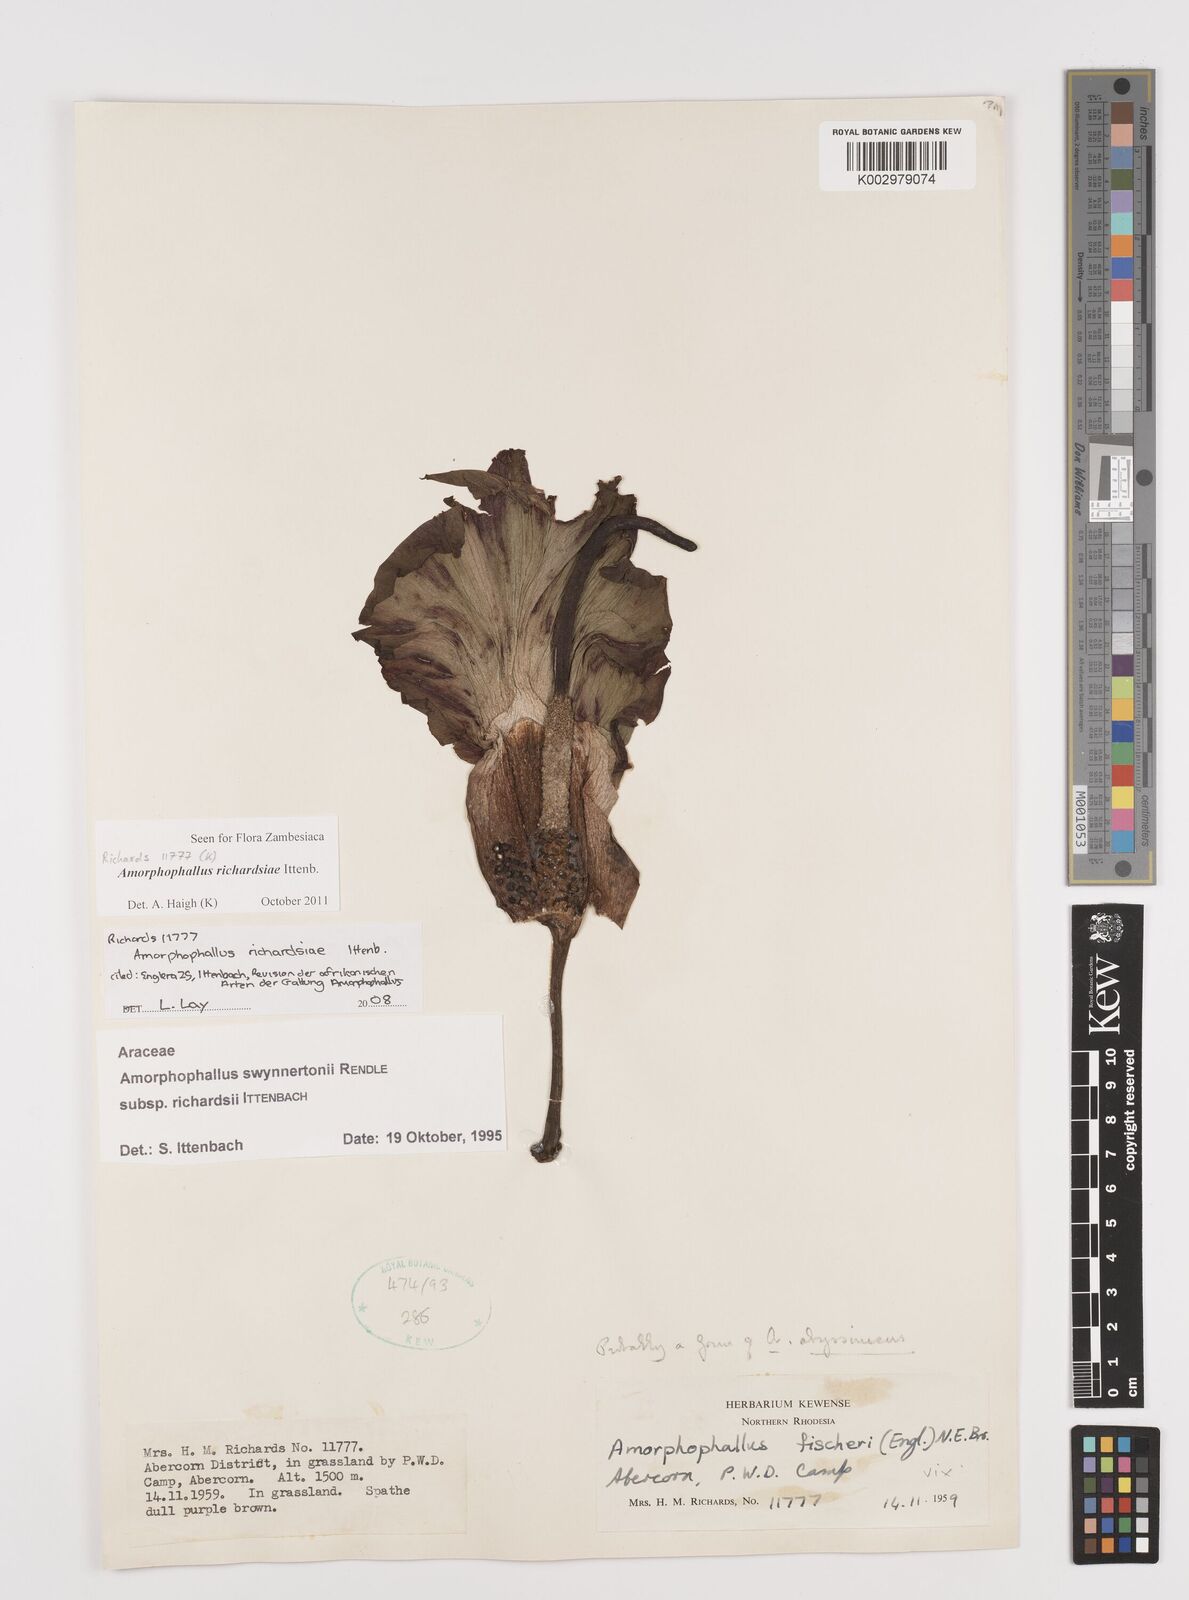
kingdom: Plantae
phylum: Tracheophyta
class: Liliopsida
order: Alismatales
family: Araceae
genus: Amorphophallus
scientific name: Amorphophallus richardsiae
